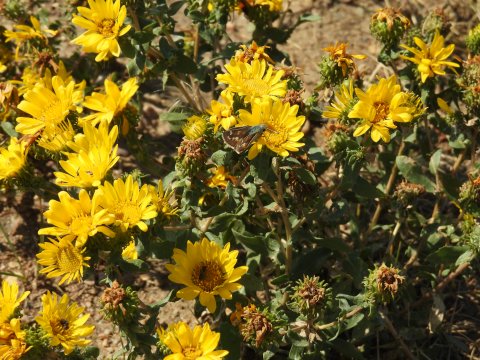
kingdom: Animalia
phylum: Arthropoda
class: Insecta
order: Lepidoptera
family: Hesperiidae
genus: Hesperia
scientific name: Hesperia comma
